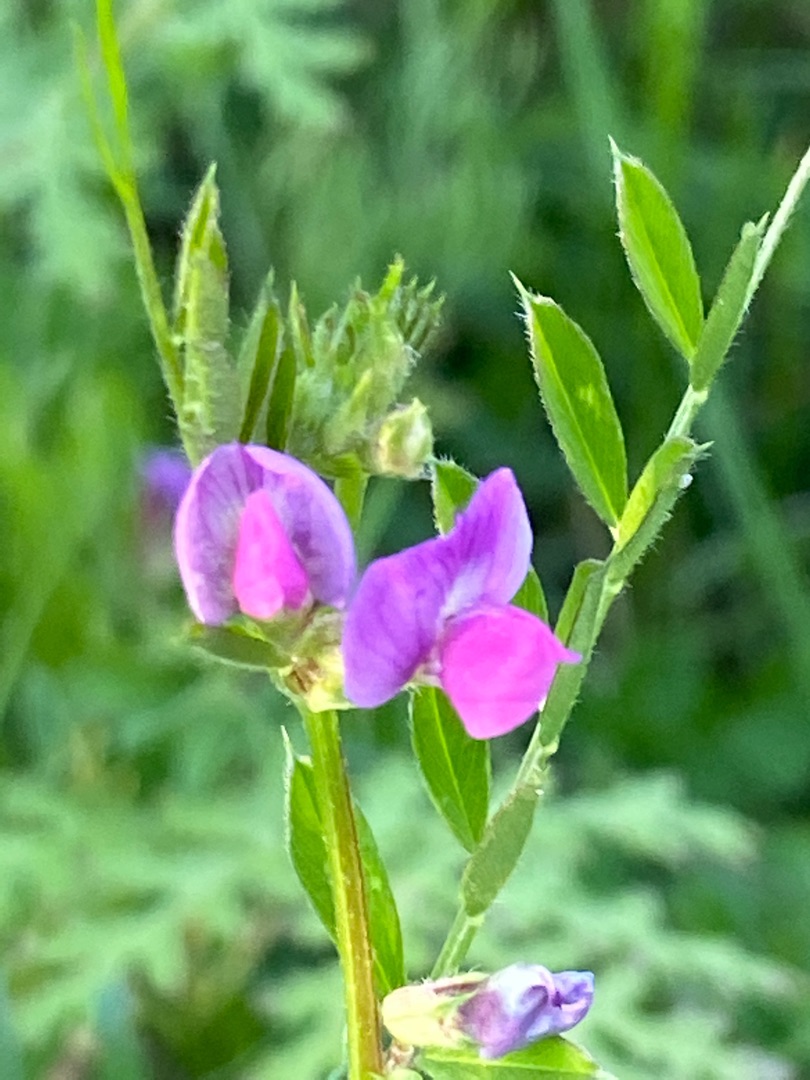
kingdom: Plantae
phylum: Tracheophyta
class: Magnoliopsida
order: Fabales
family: Fabaceae
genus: Vicia
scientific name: Vicia sativa
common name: Foder-vikke
